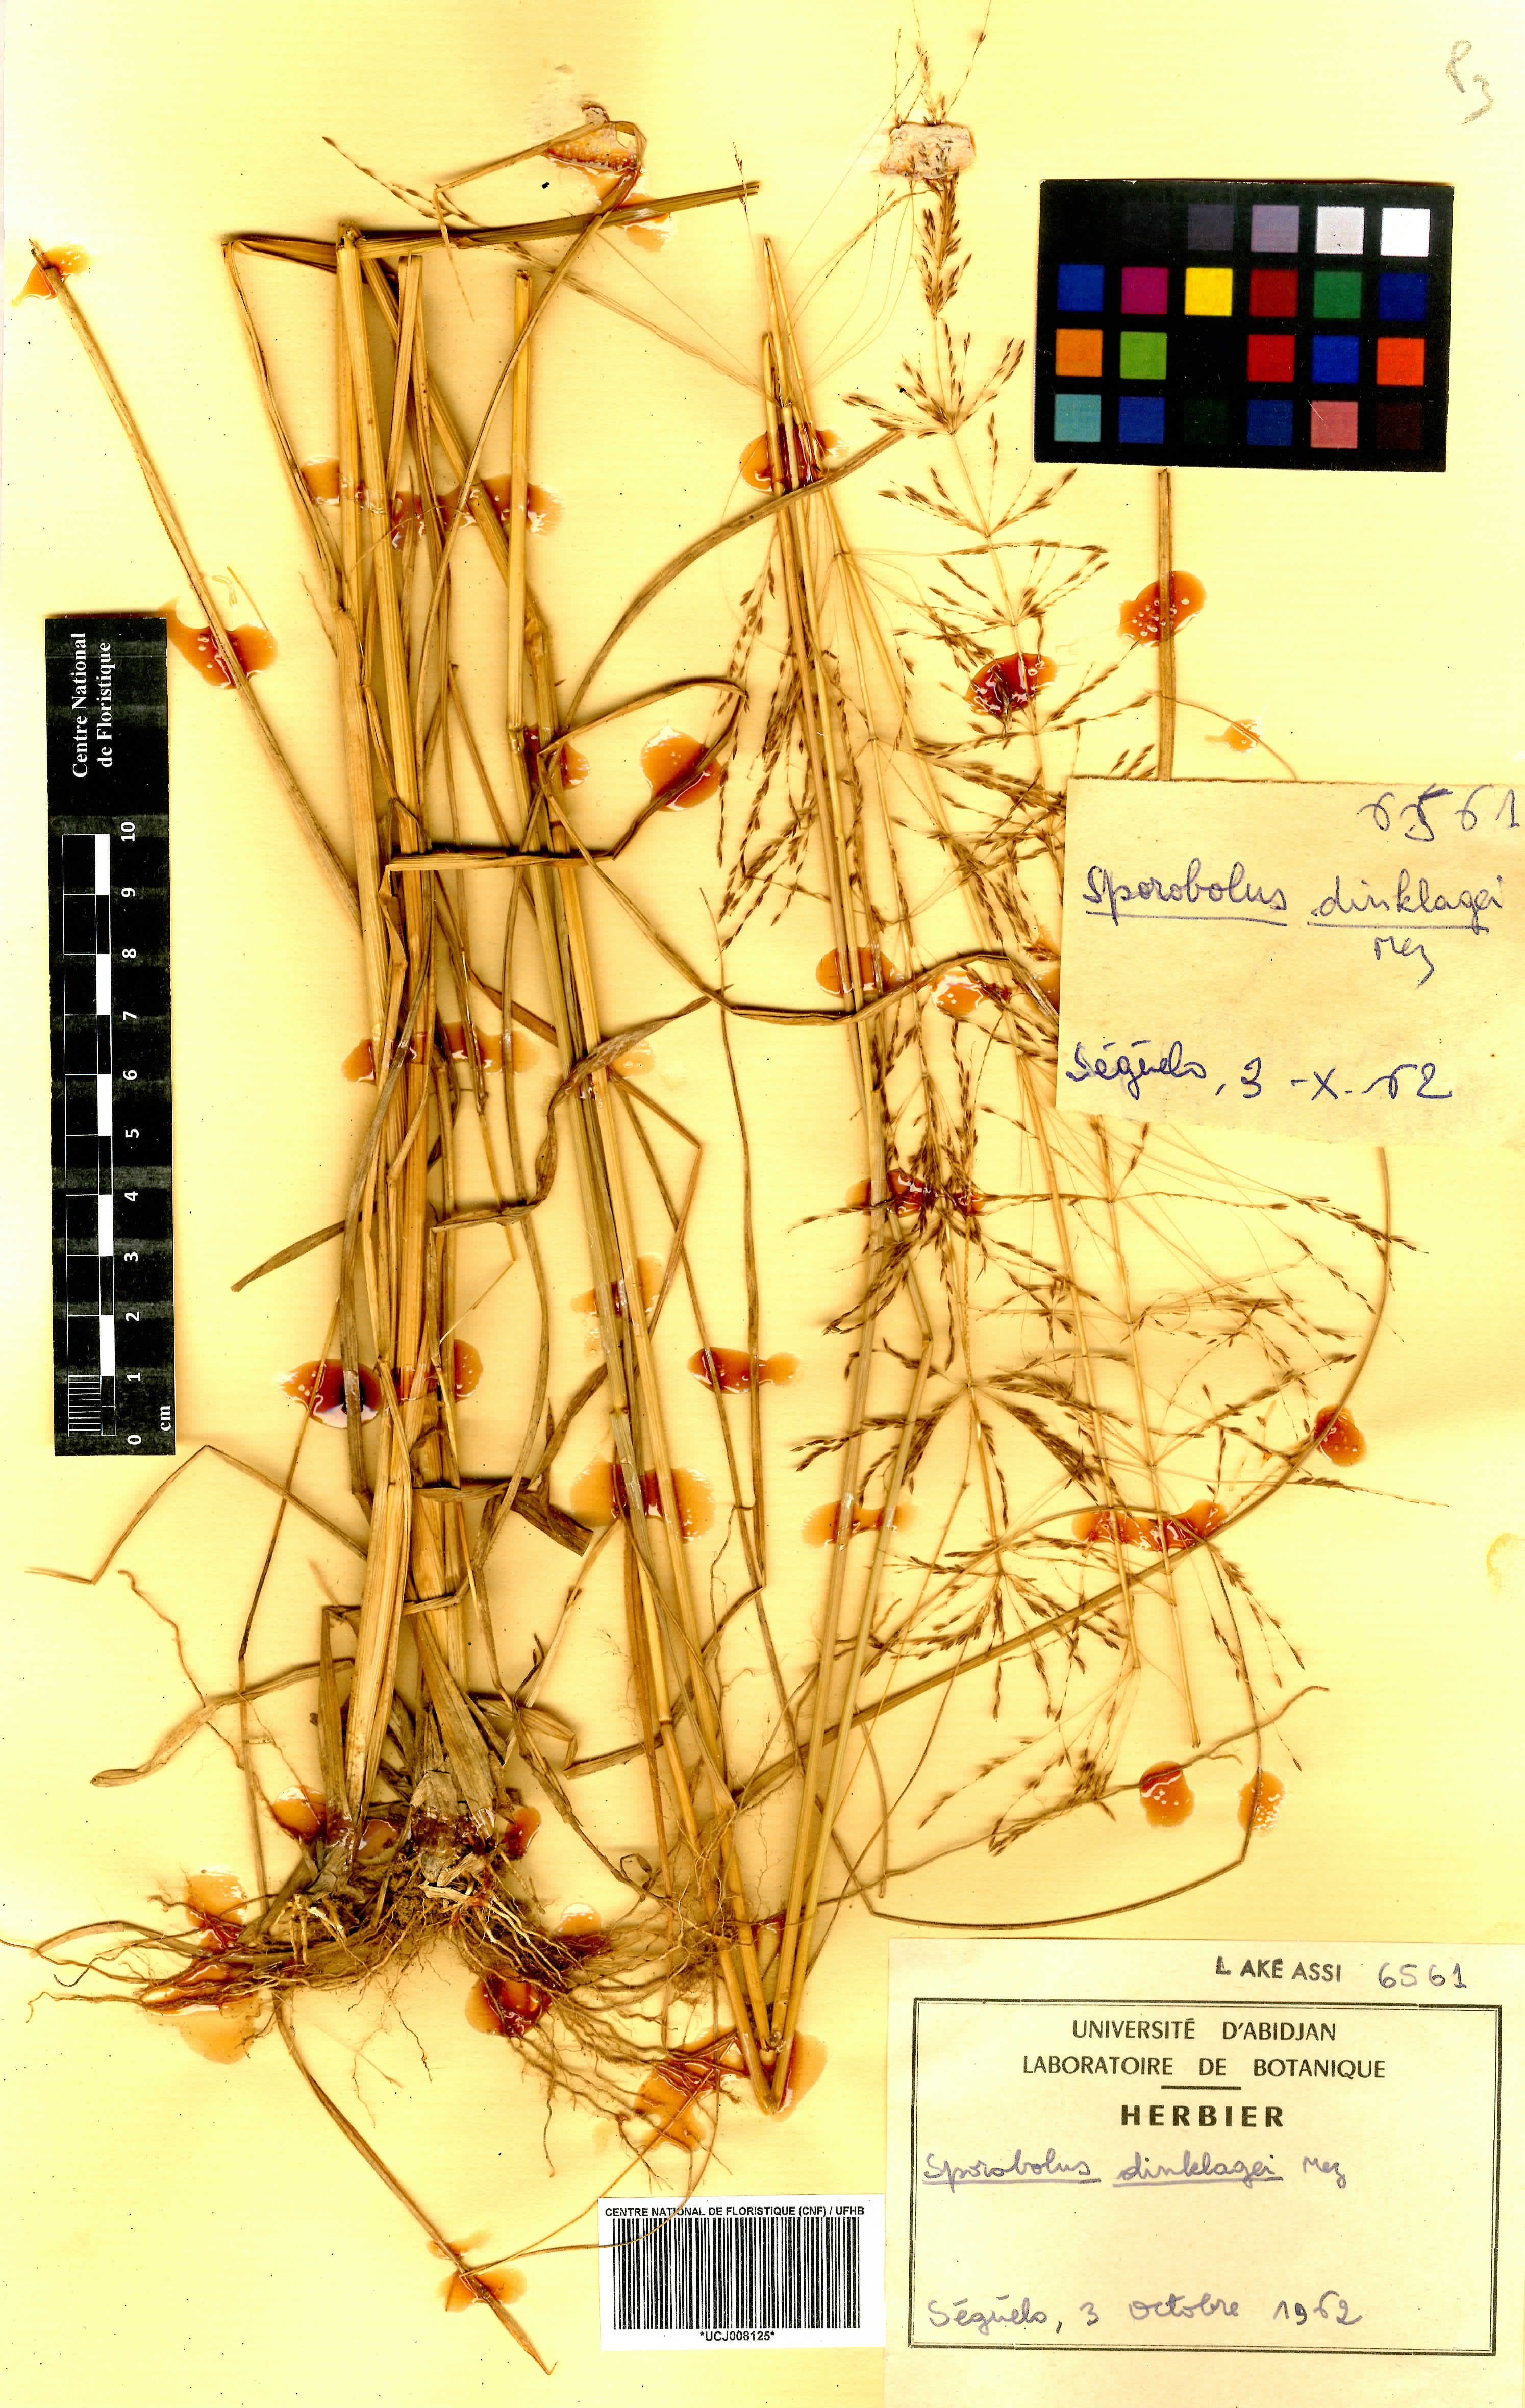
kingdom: Plantae
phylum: Tracheophyta
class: Liliopsida
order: Poales
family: Poaceae
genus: Sporobolus
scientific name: Sporobolus dinklagei
